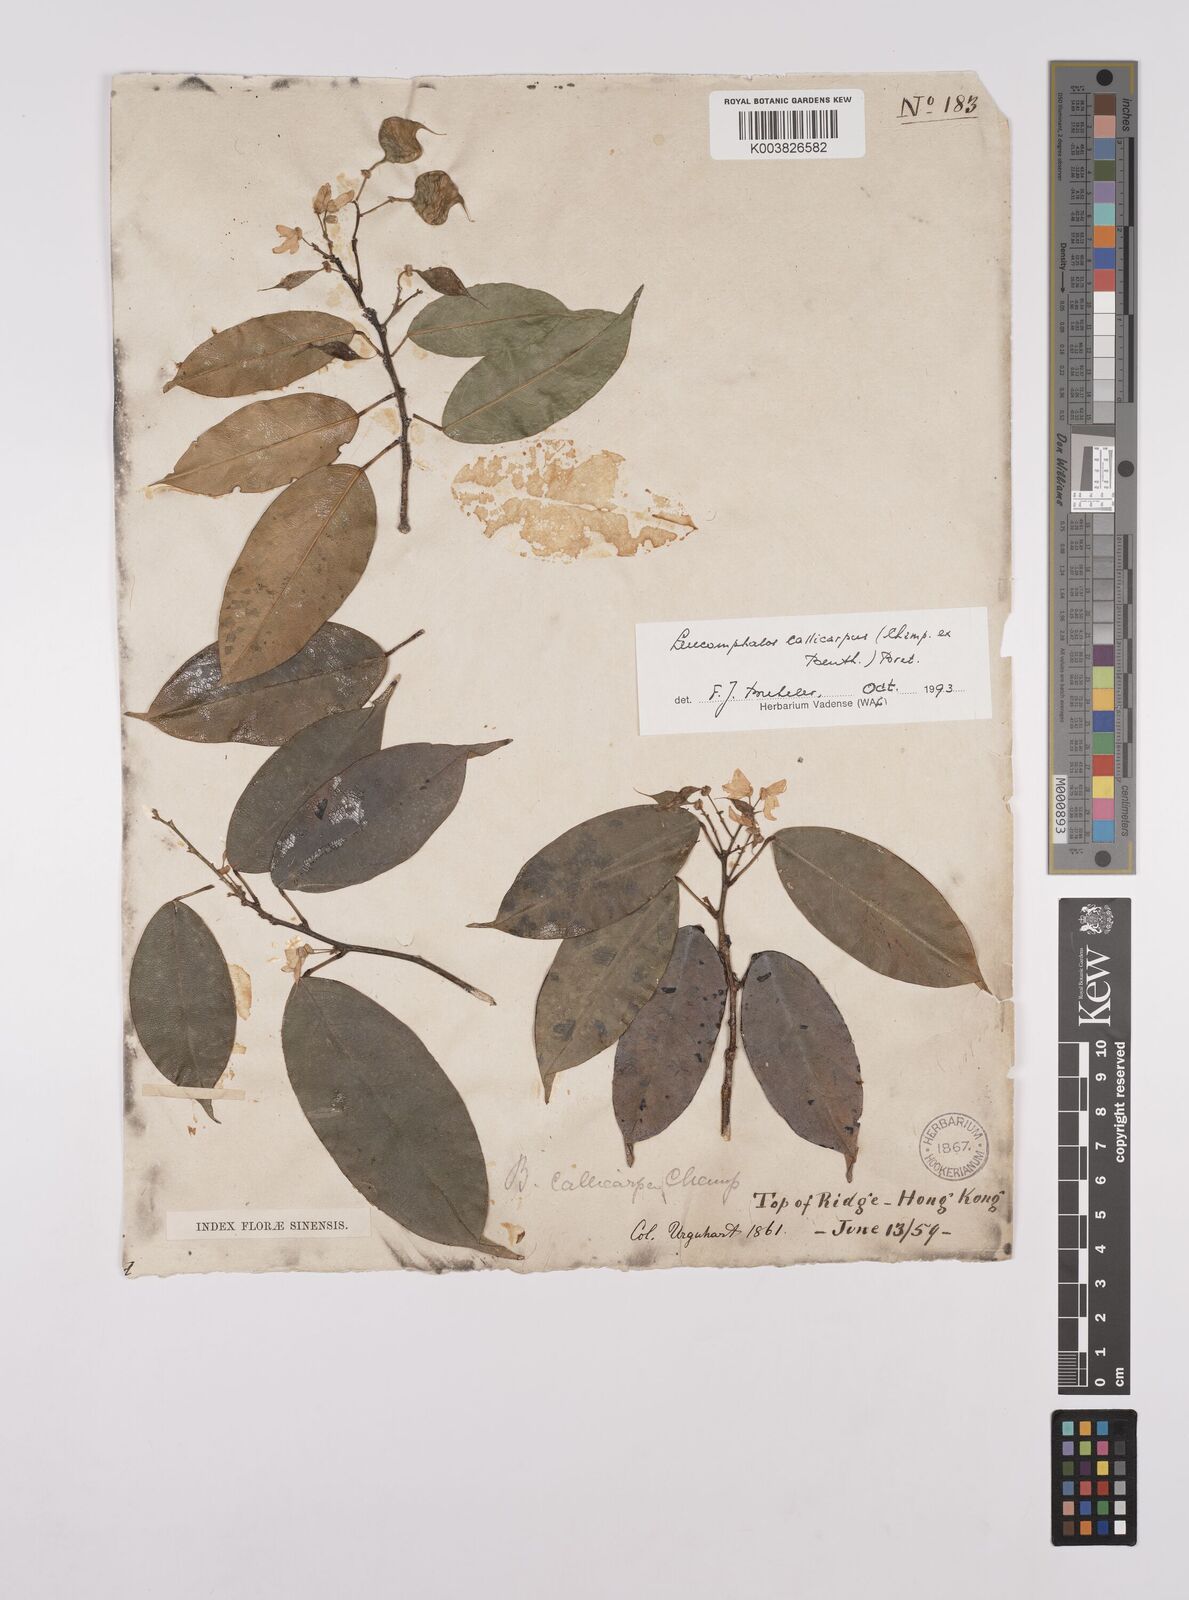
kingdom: Plantae
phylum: Tracheophyta
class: Magnoliopsida
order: Fabales
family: Fabaceae
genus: Bowringia
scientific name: Bowringia callicarpa
